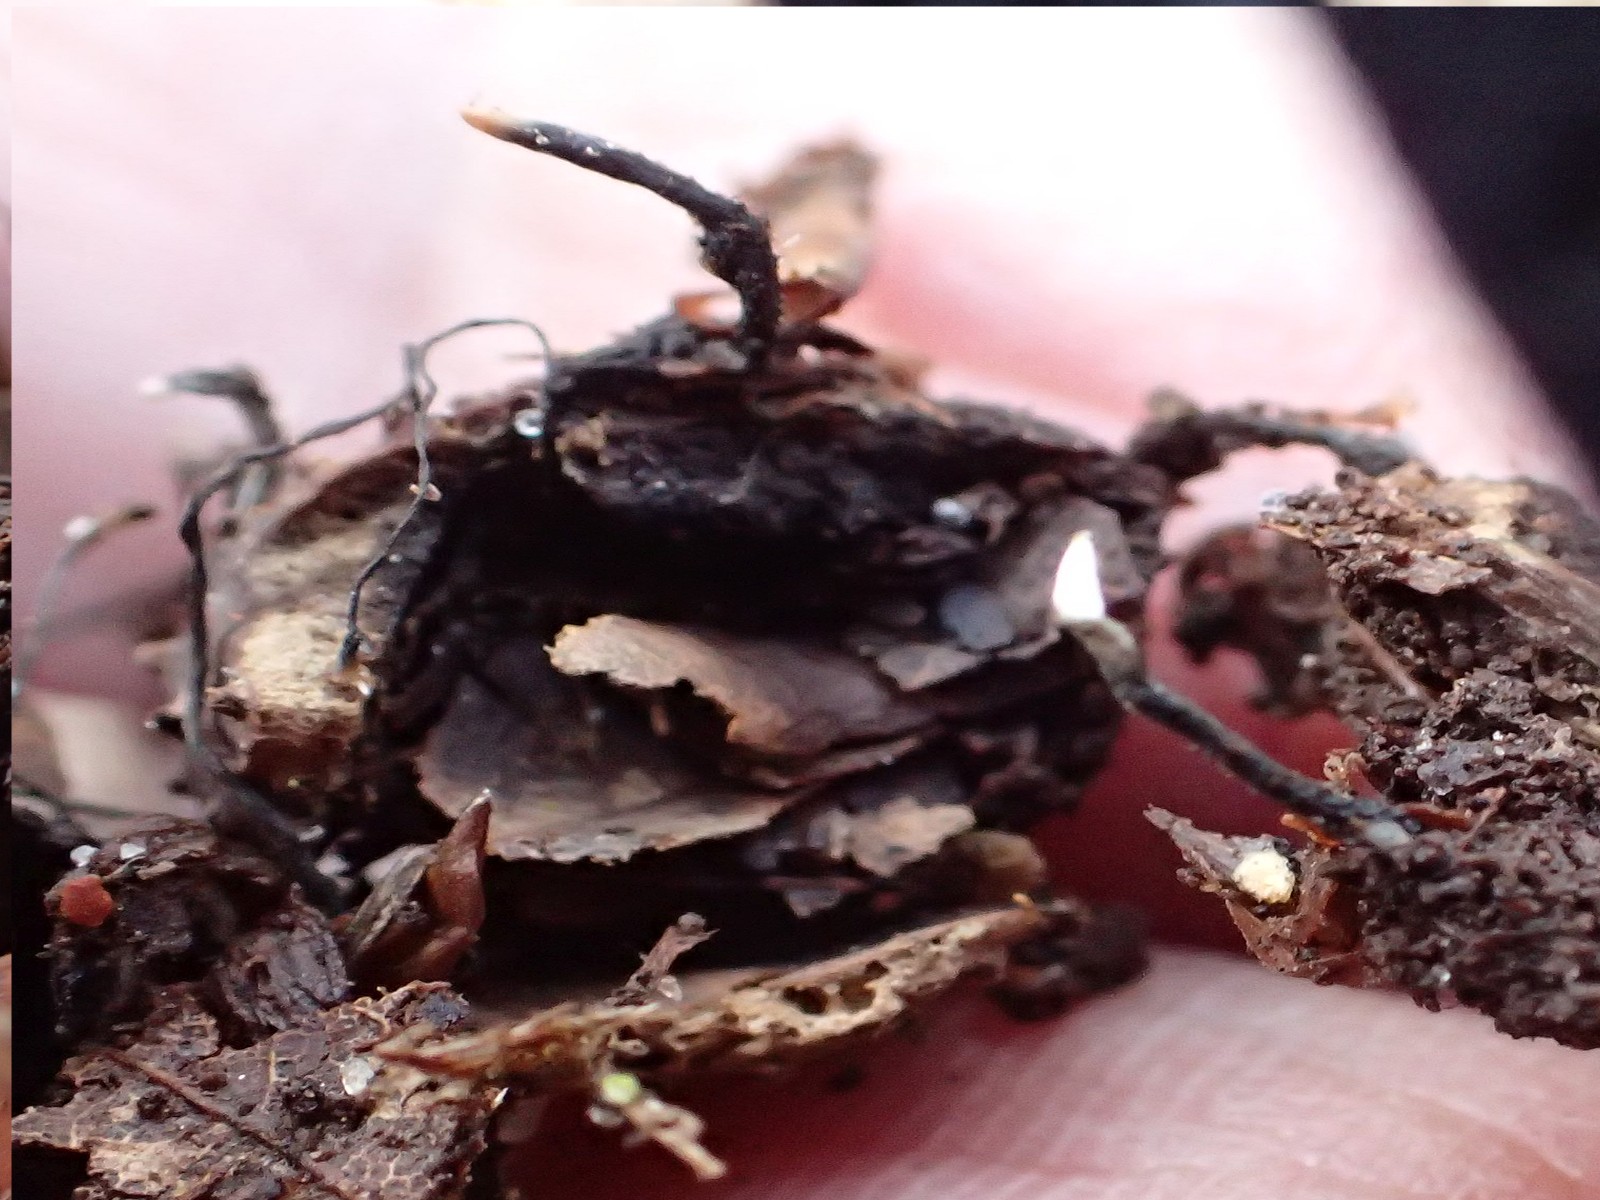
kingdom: Fungi
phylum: Ascomycota
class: Sordariomycetes
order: Xylariales
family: Xylariaceae
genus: Xylaria
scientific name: Xylaria carpophila
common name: bogskål-stødsvamp
